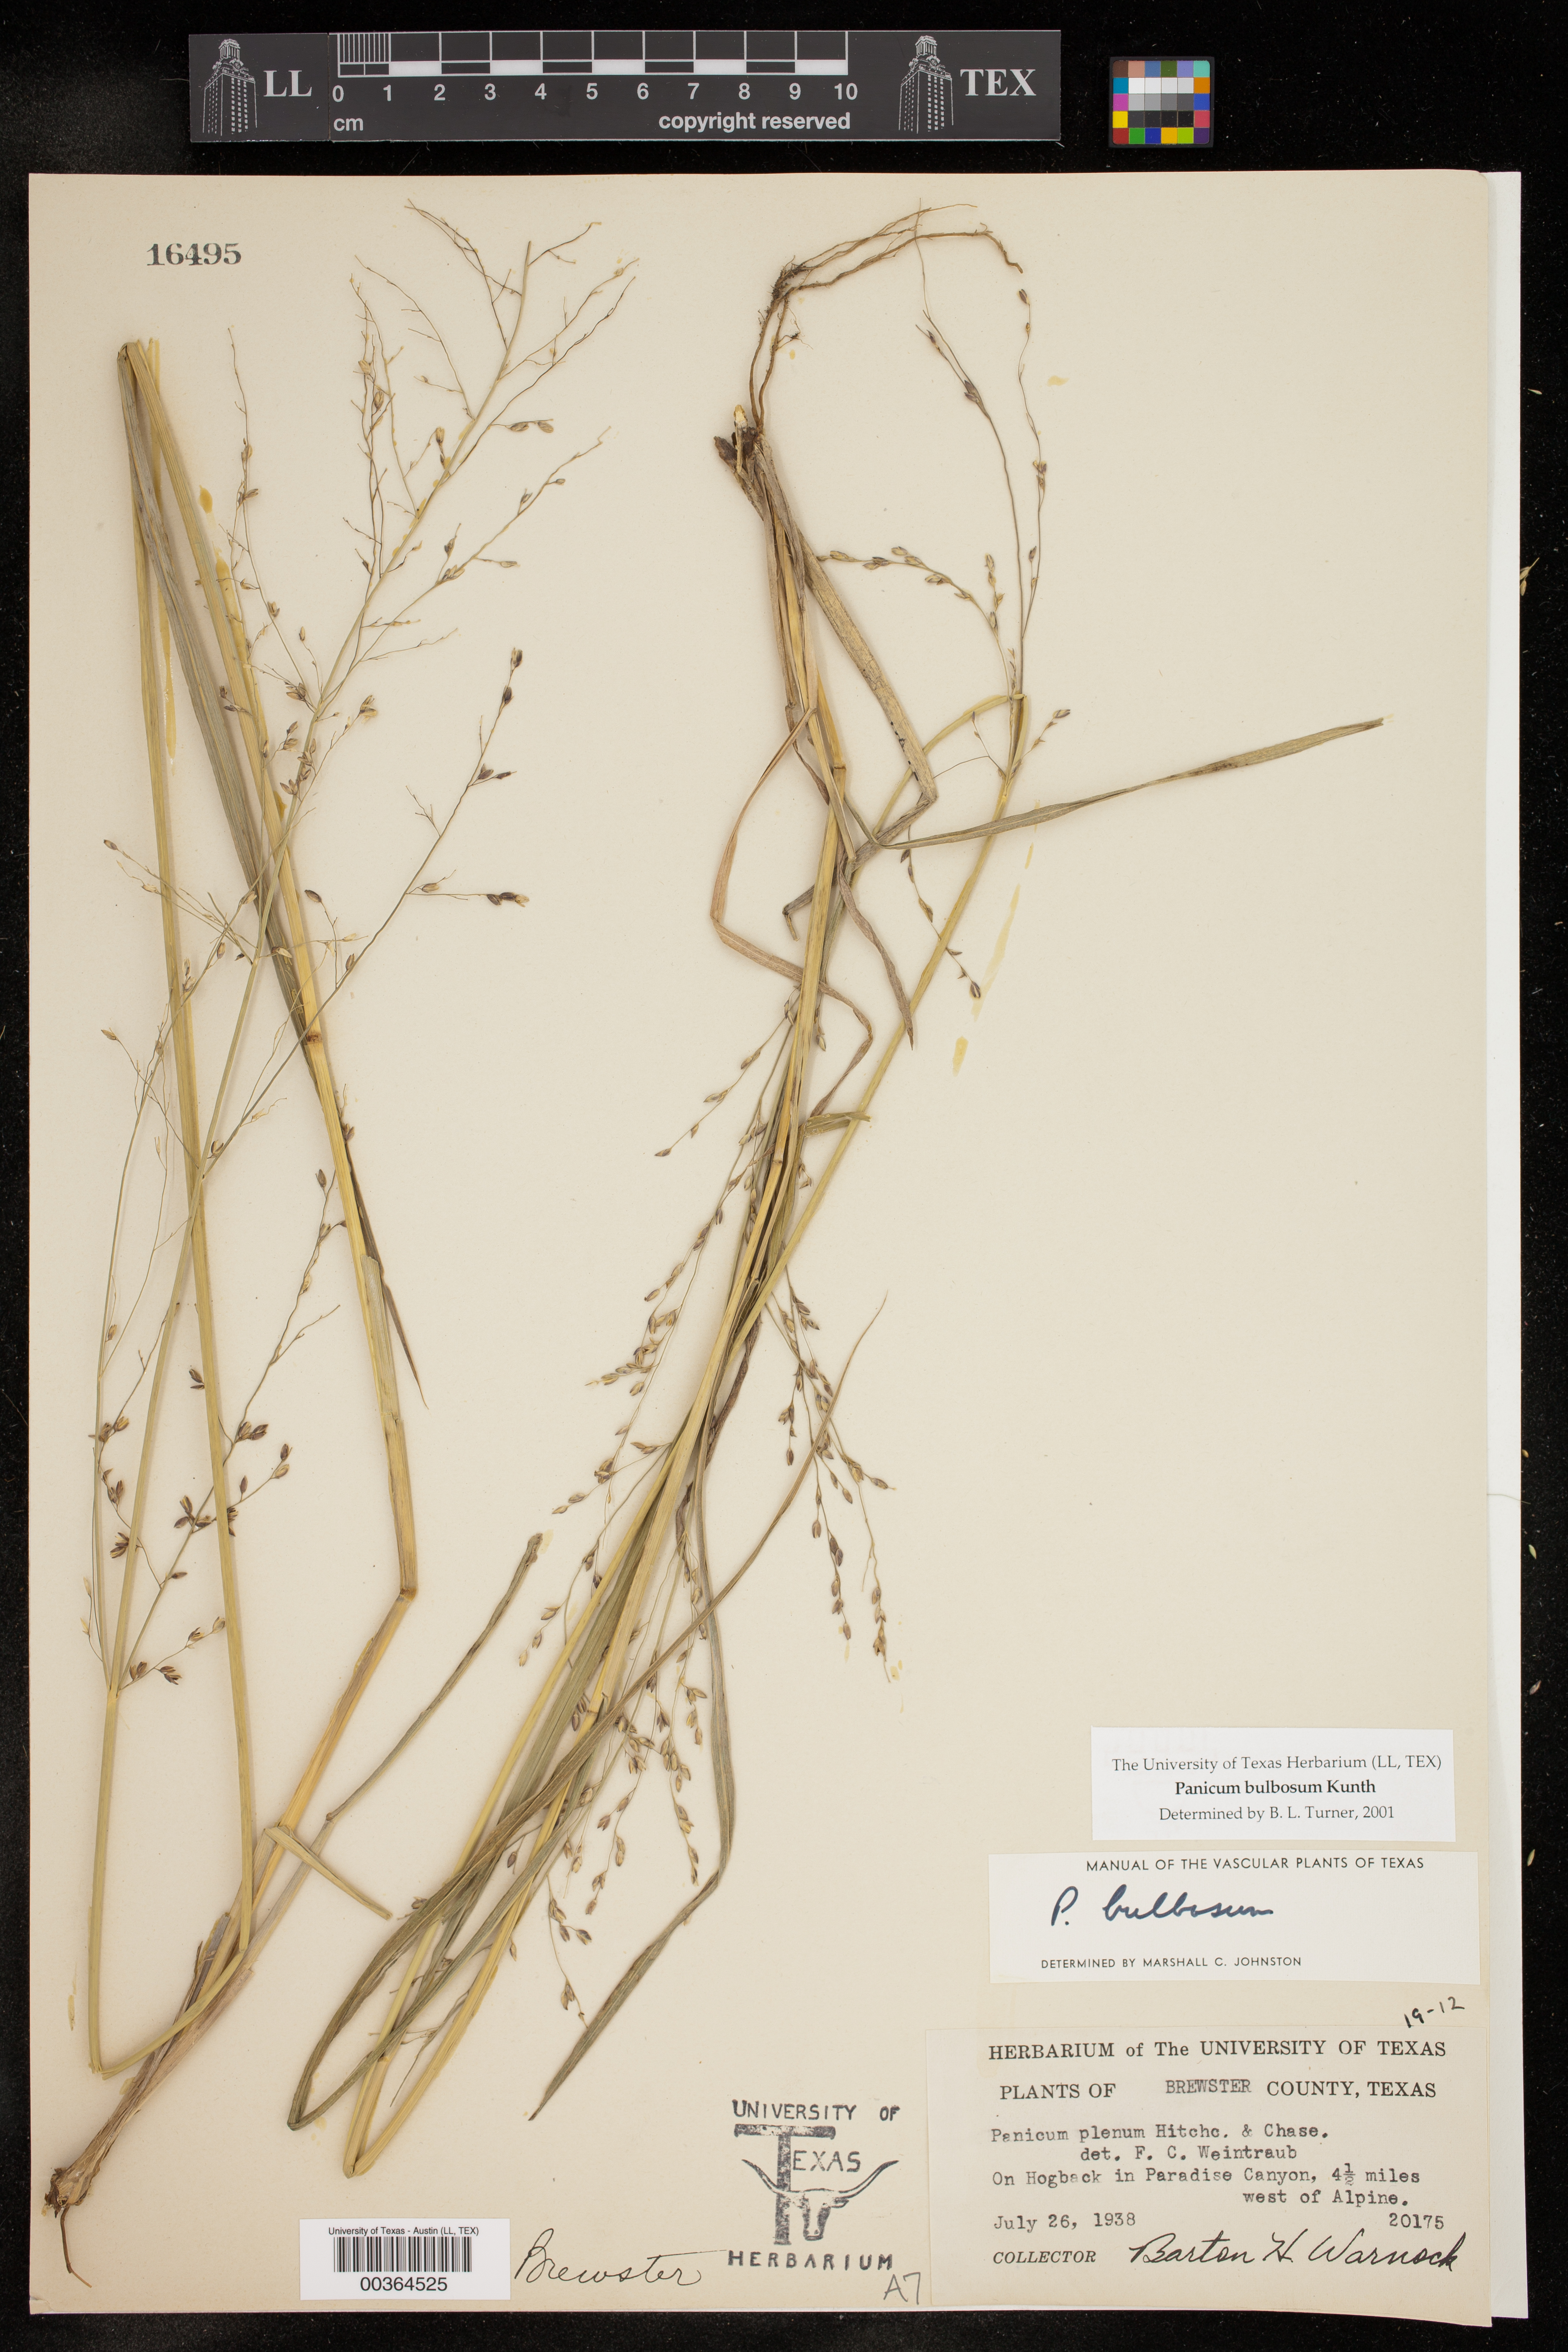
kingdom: Plantae
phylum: Tracheophyta
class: Liliopsida
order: Poales
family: Poaceae
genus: Zuloagaea
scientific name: Zuloagaea bulbosa
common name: Canyon panic grass
